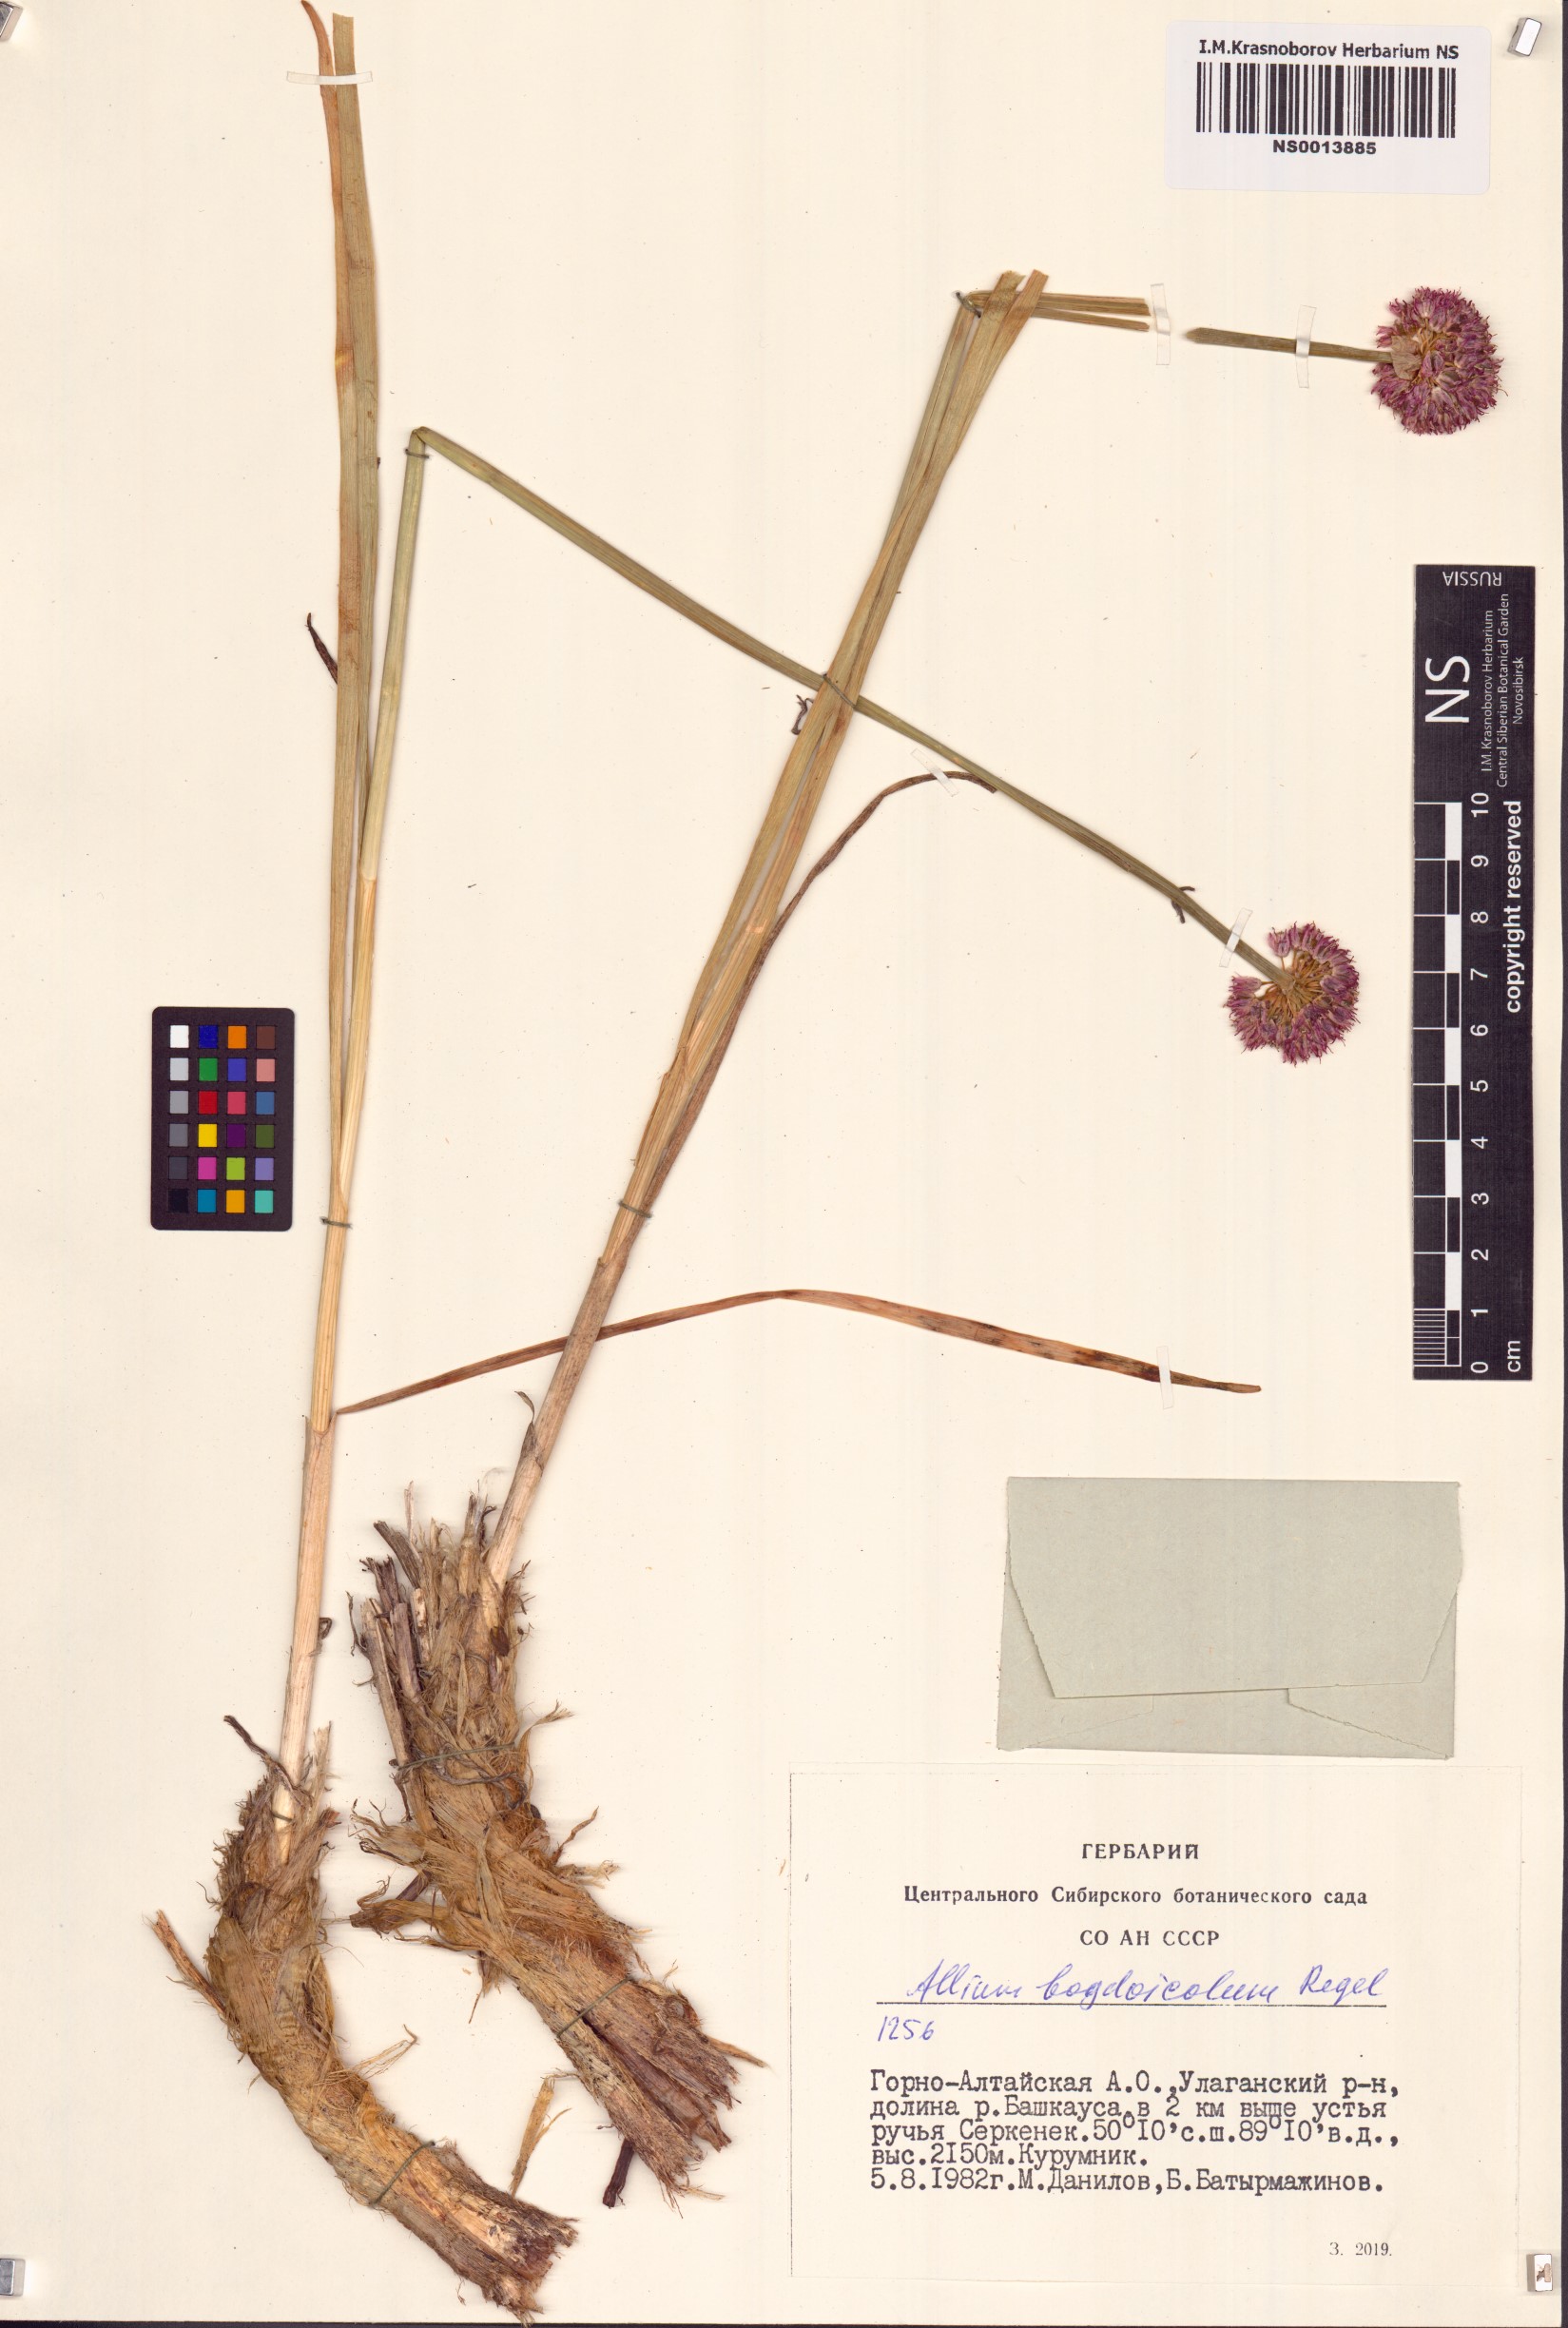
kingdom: Plantae
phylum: Tracheophyta
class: Liliopsida
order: Asparagales
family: Amaryllidaceae
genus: Allium
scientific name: Allium schrenkii
